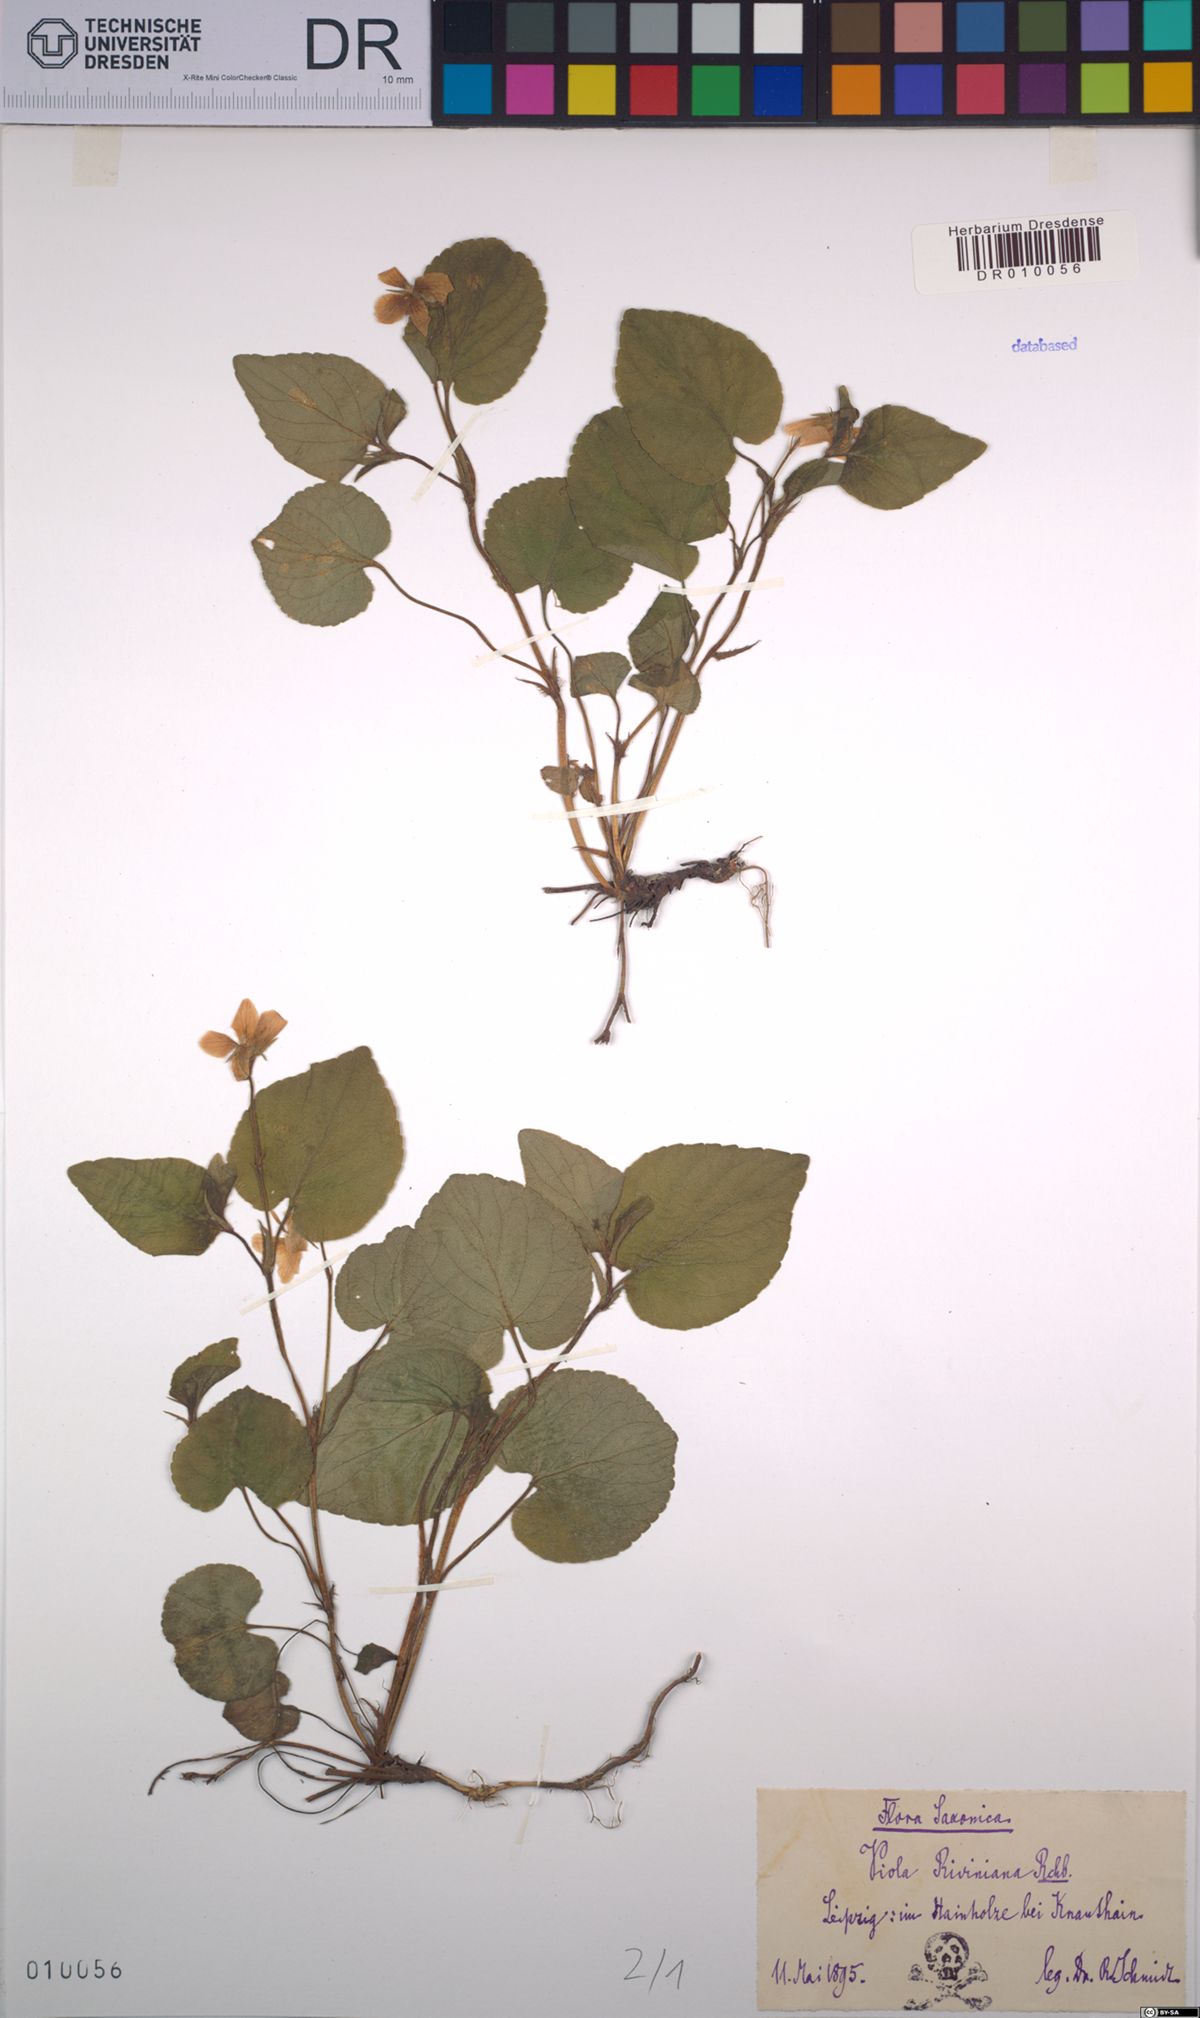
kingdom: Plantae
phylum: Tracheophyta
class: Magnoliopsida
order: Malpighiales
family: Violaceae
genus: Viola
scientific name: Viola riviniana
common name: Common dog-violet
